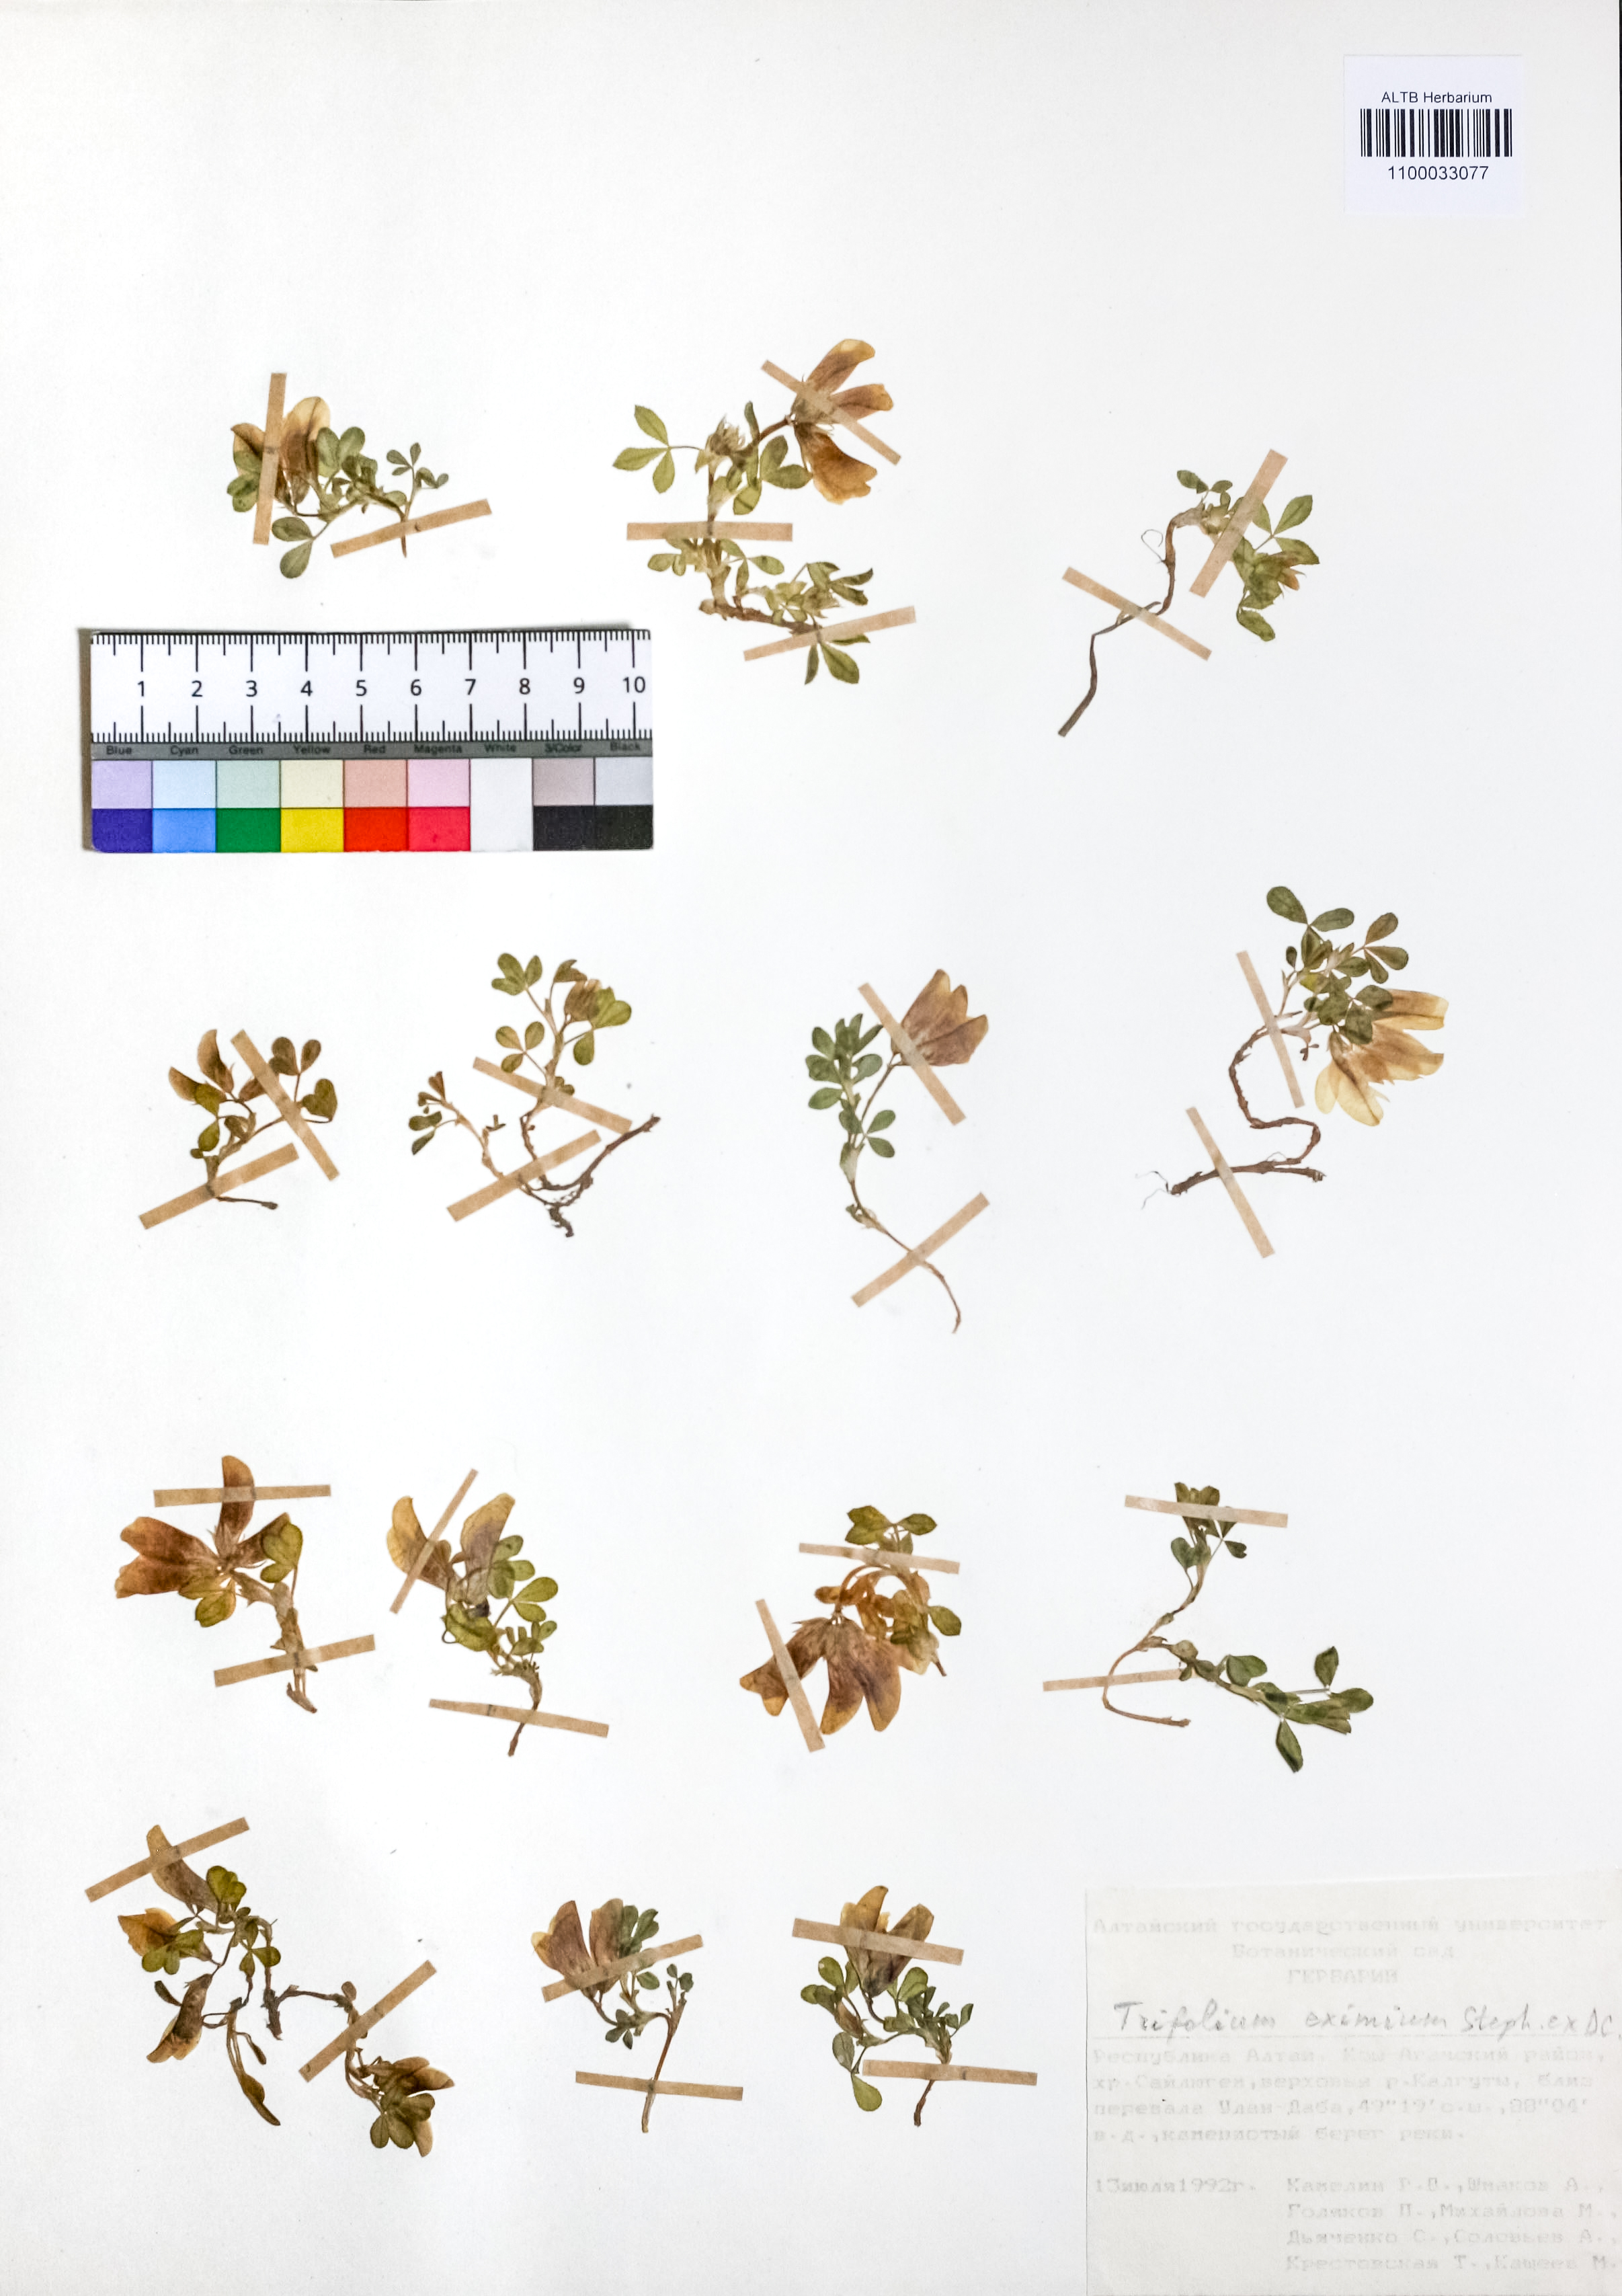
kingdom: Plantae
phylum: Tracheophyta
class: Magnoliopsida
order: Fabales
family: Fabaceae
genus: Trifolium
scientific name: Trifolium eximium
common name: Excellent clover
